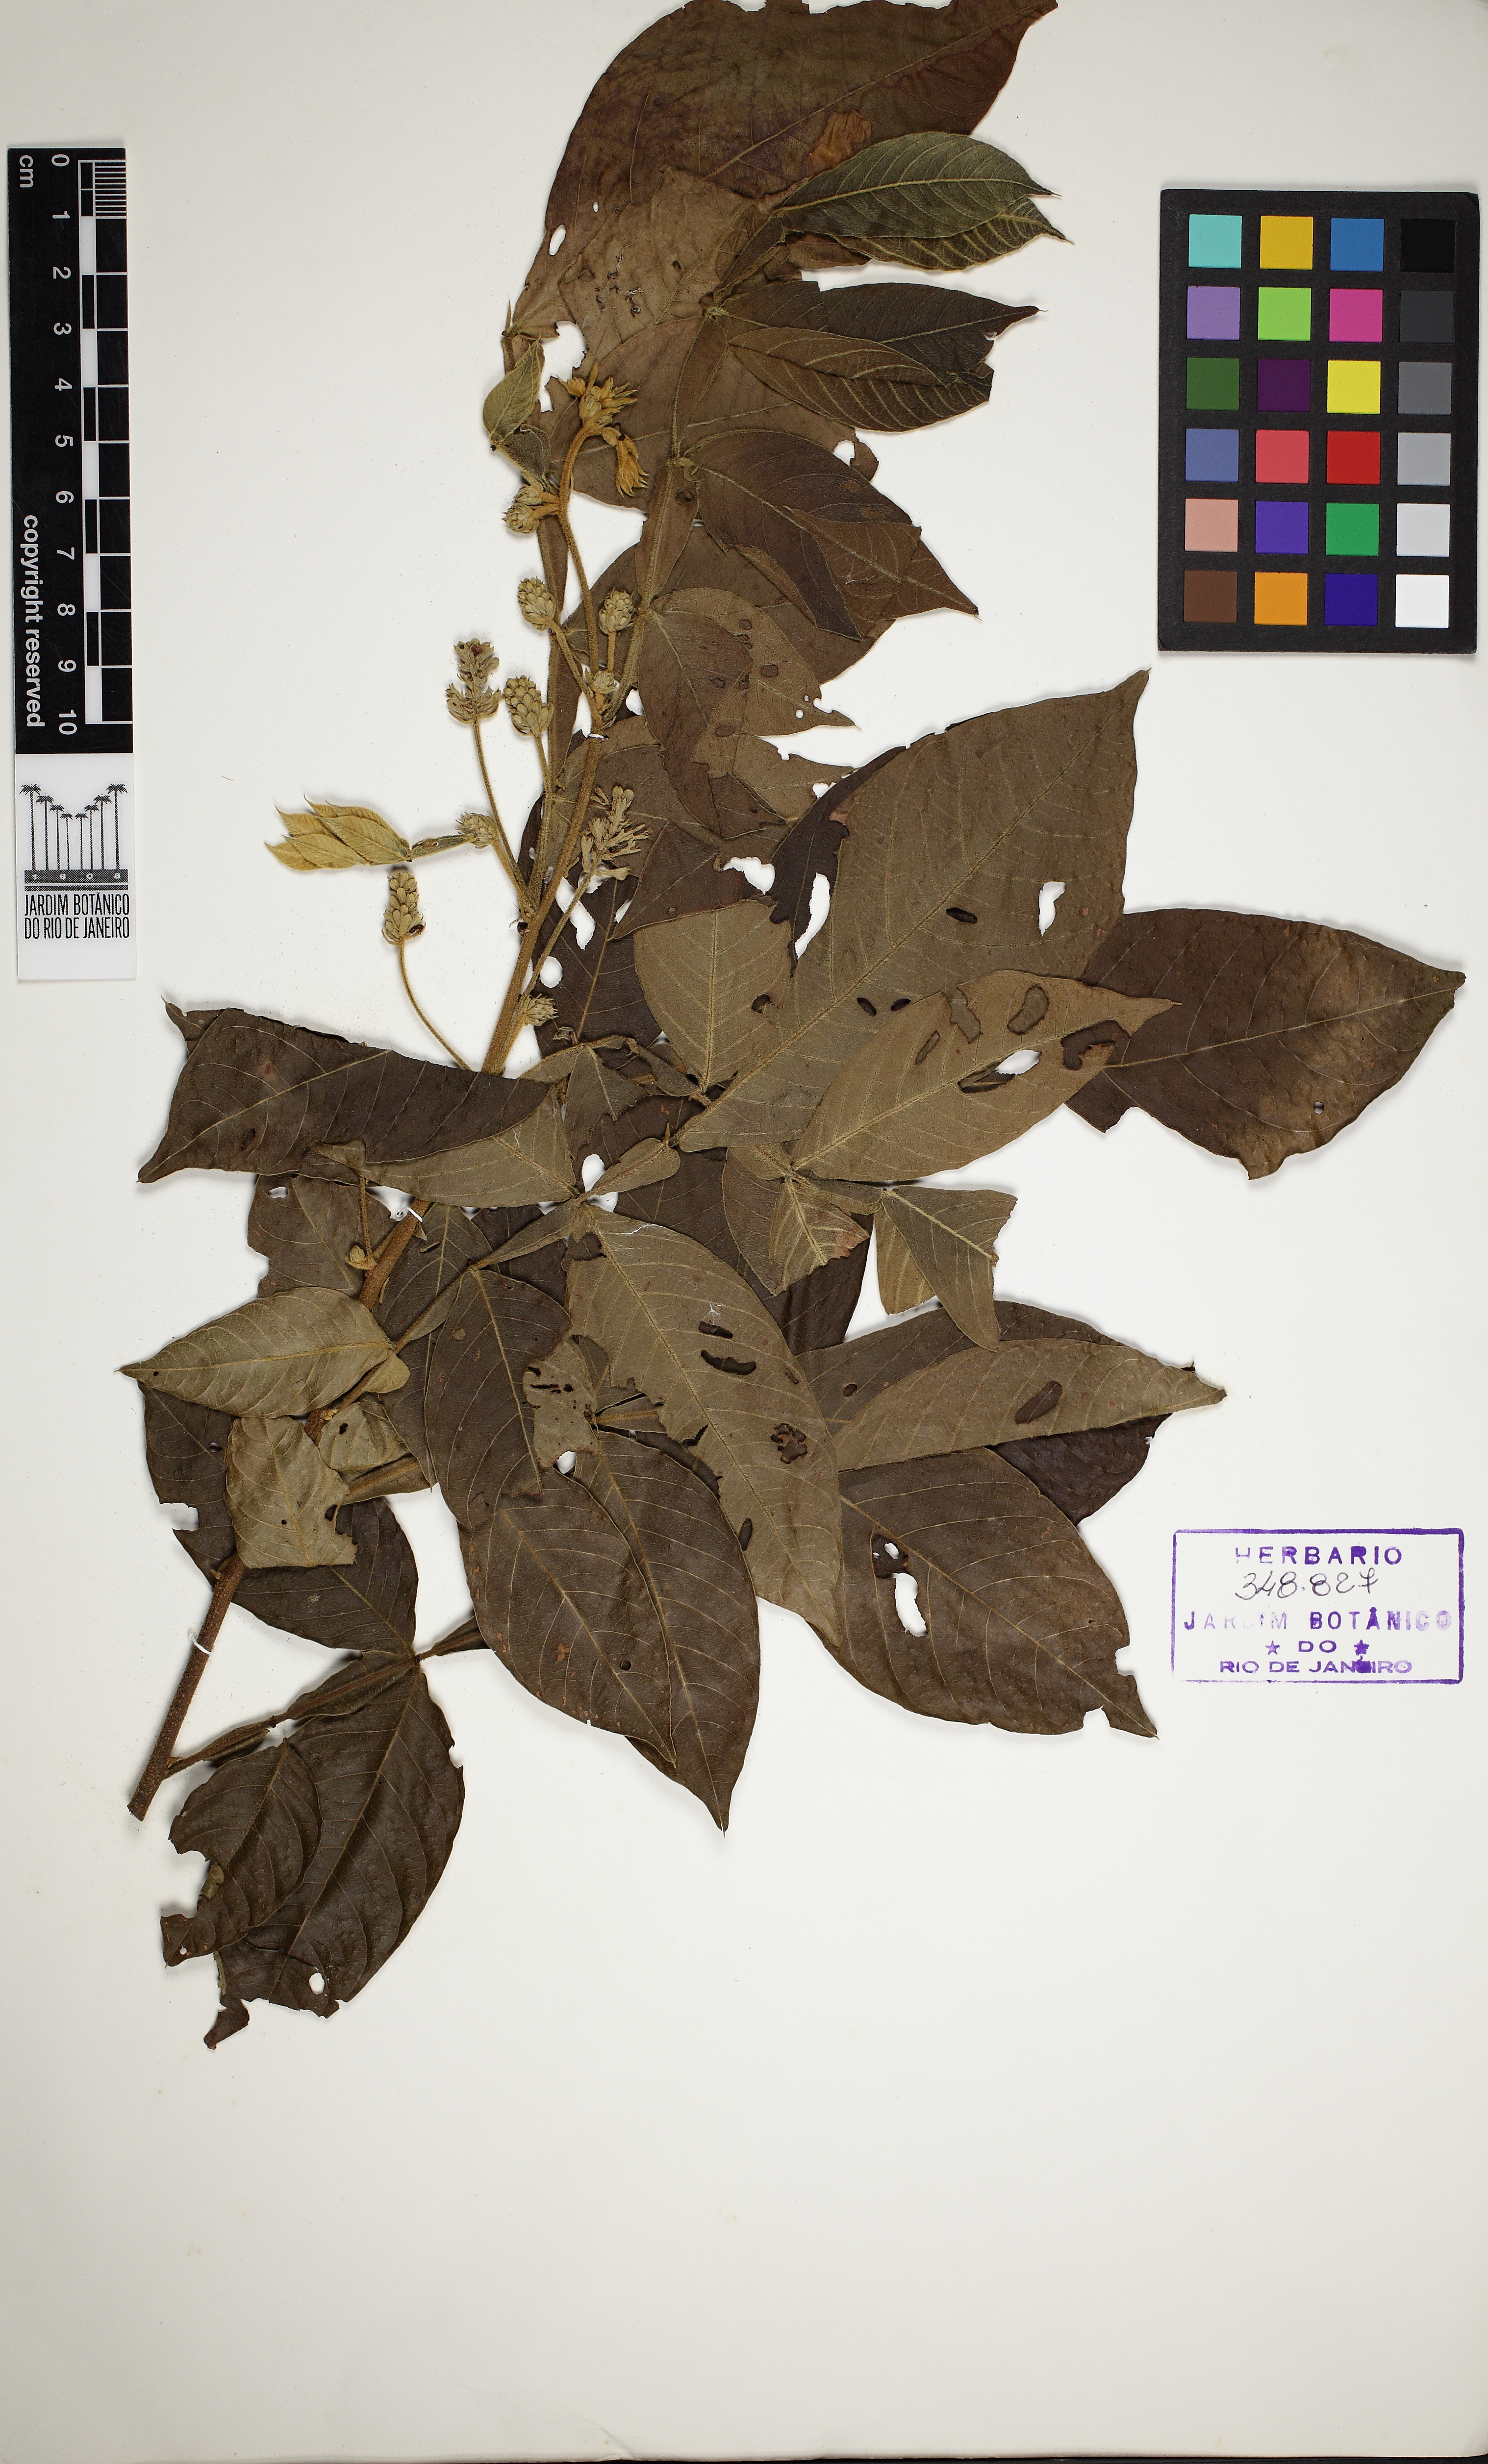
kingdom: Plantae
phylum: Tracheophyta
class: Magnoliopsida
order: Fabales
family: Fabaceae
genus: Inga
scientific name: Inga mendoncaei
